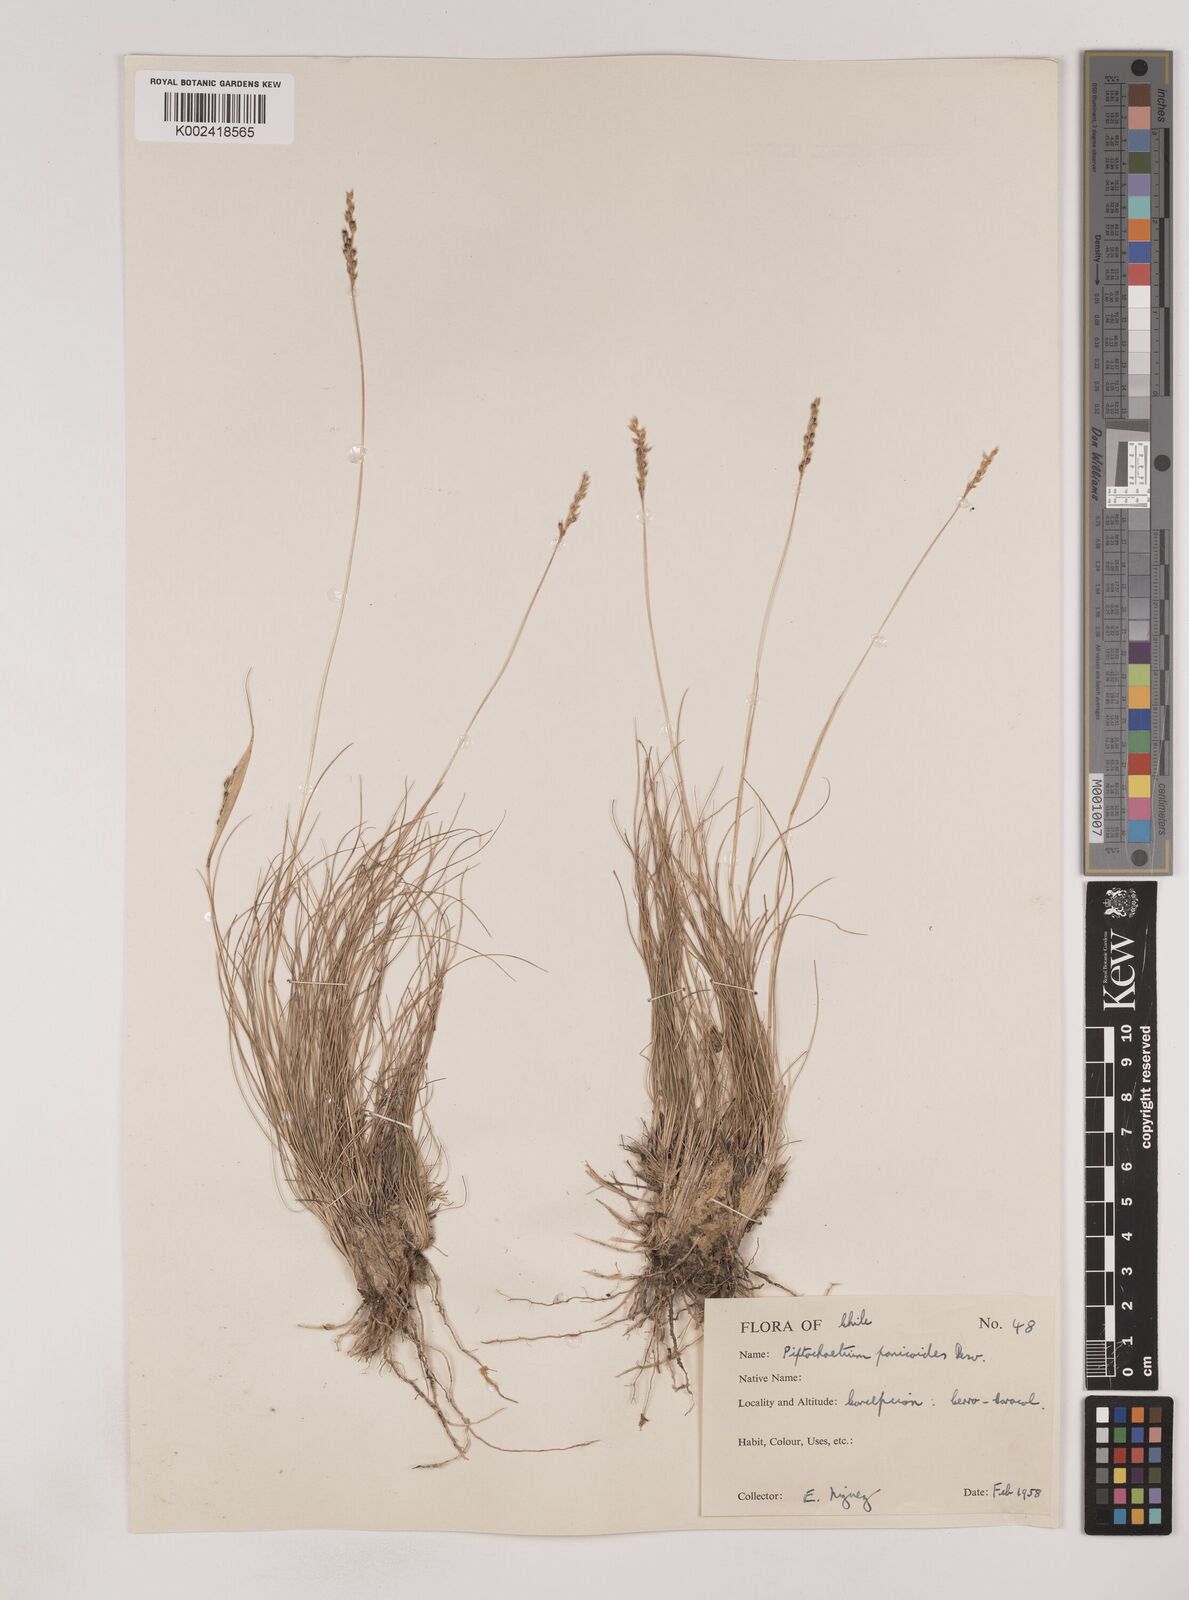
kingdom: Plantae
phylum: Tracheophyta
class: Liliopsida
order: Poales
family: Poaceae
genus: Piptochaetium
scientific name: Piptochaetium montevidense
